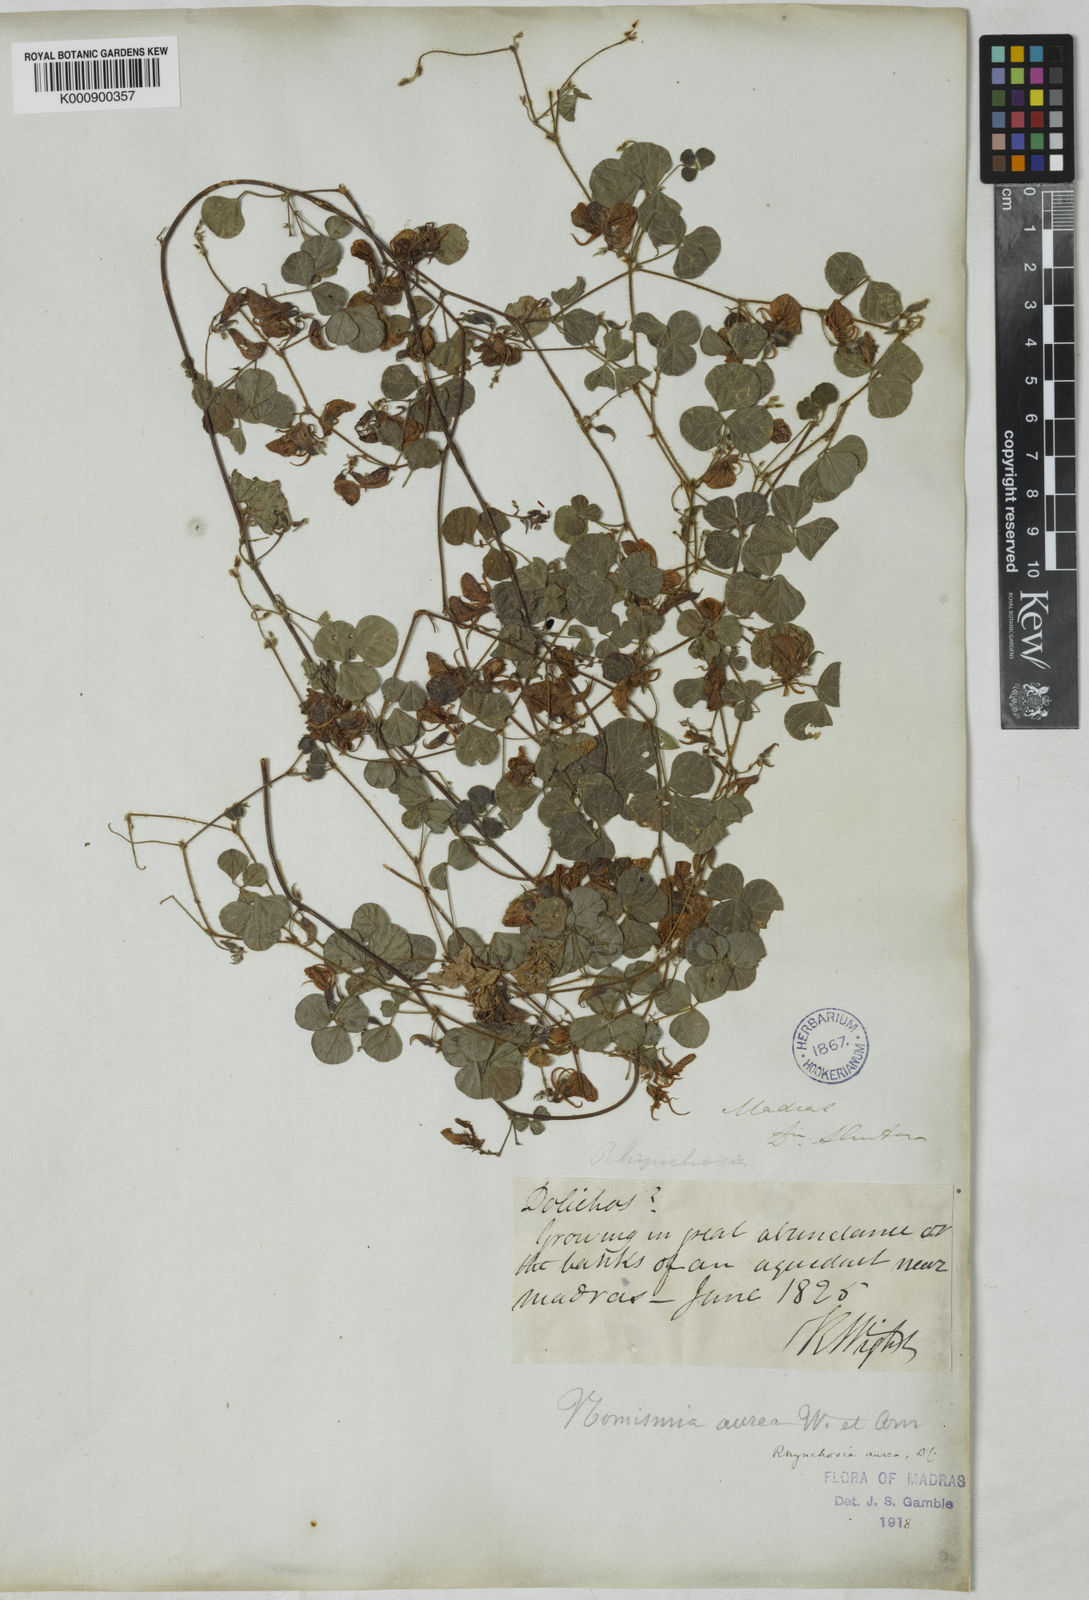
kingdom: Plantae
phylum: Tracheophyta
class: Magnoliopsida
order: Fabales
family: Fabaceae
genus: Rhynchosia
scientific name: Rhynchosia aurea
